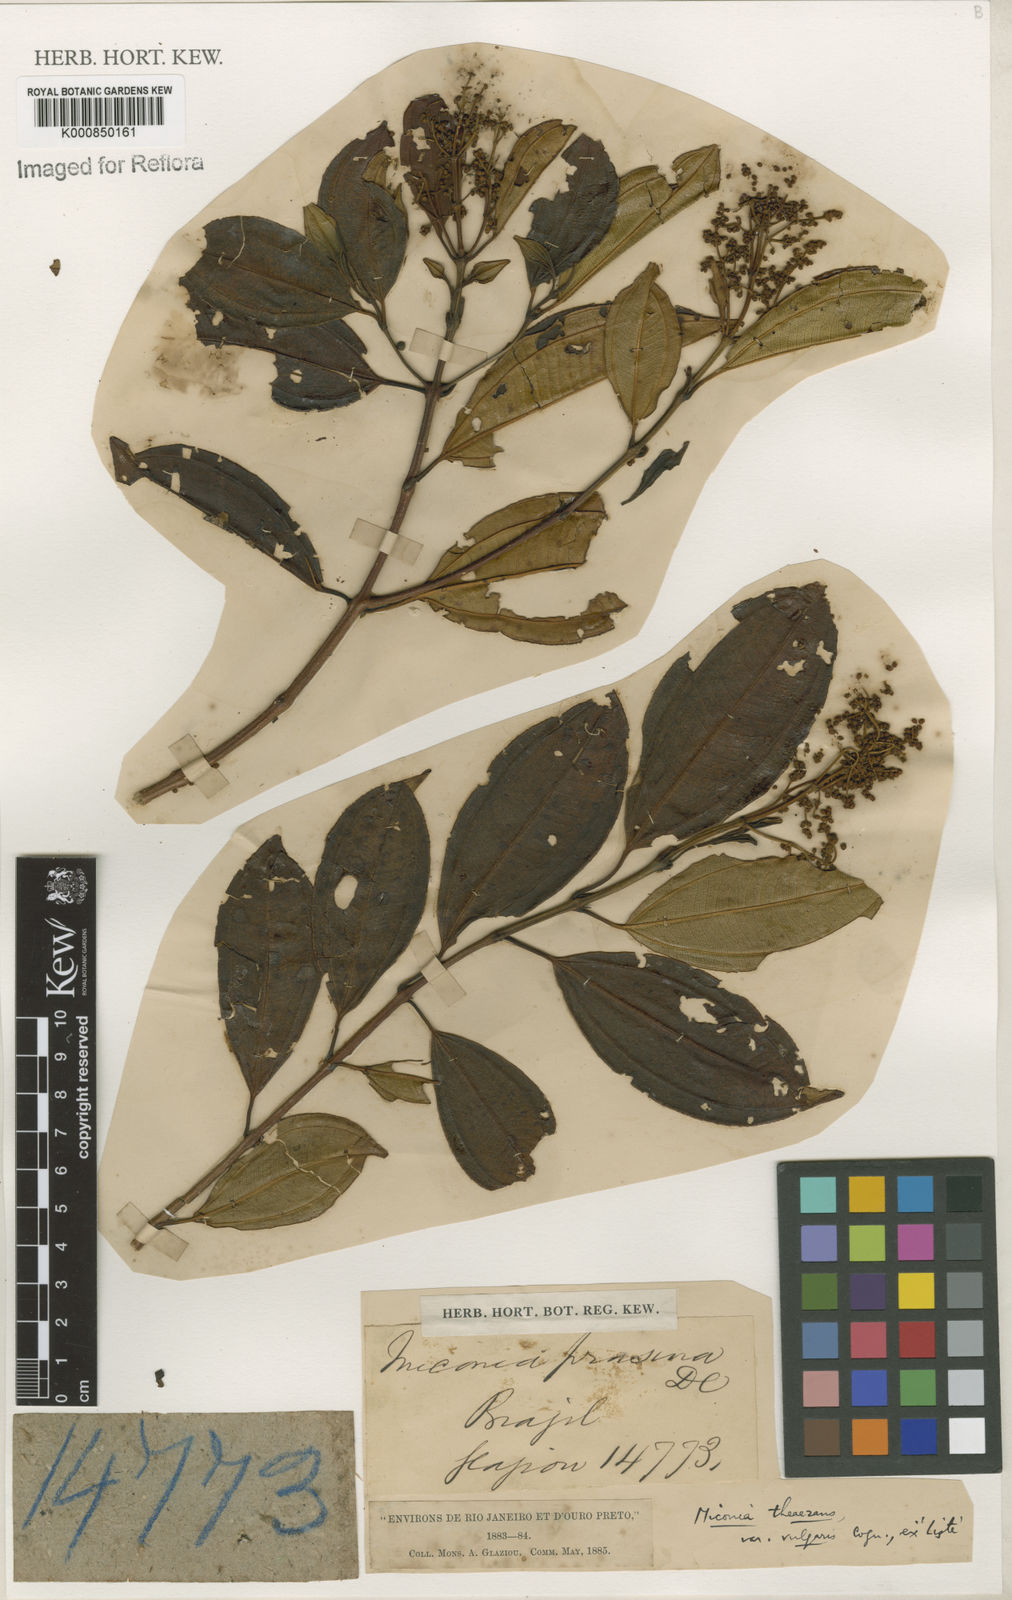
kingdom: Plantae
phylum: Tracheophyta
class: Magnoliopsida
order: Myrtales
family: Melastomataceae
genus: Miconia
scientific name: Miconia
